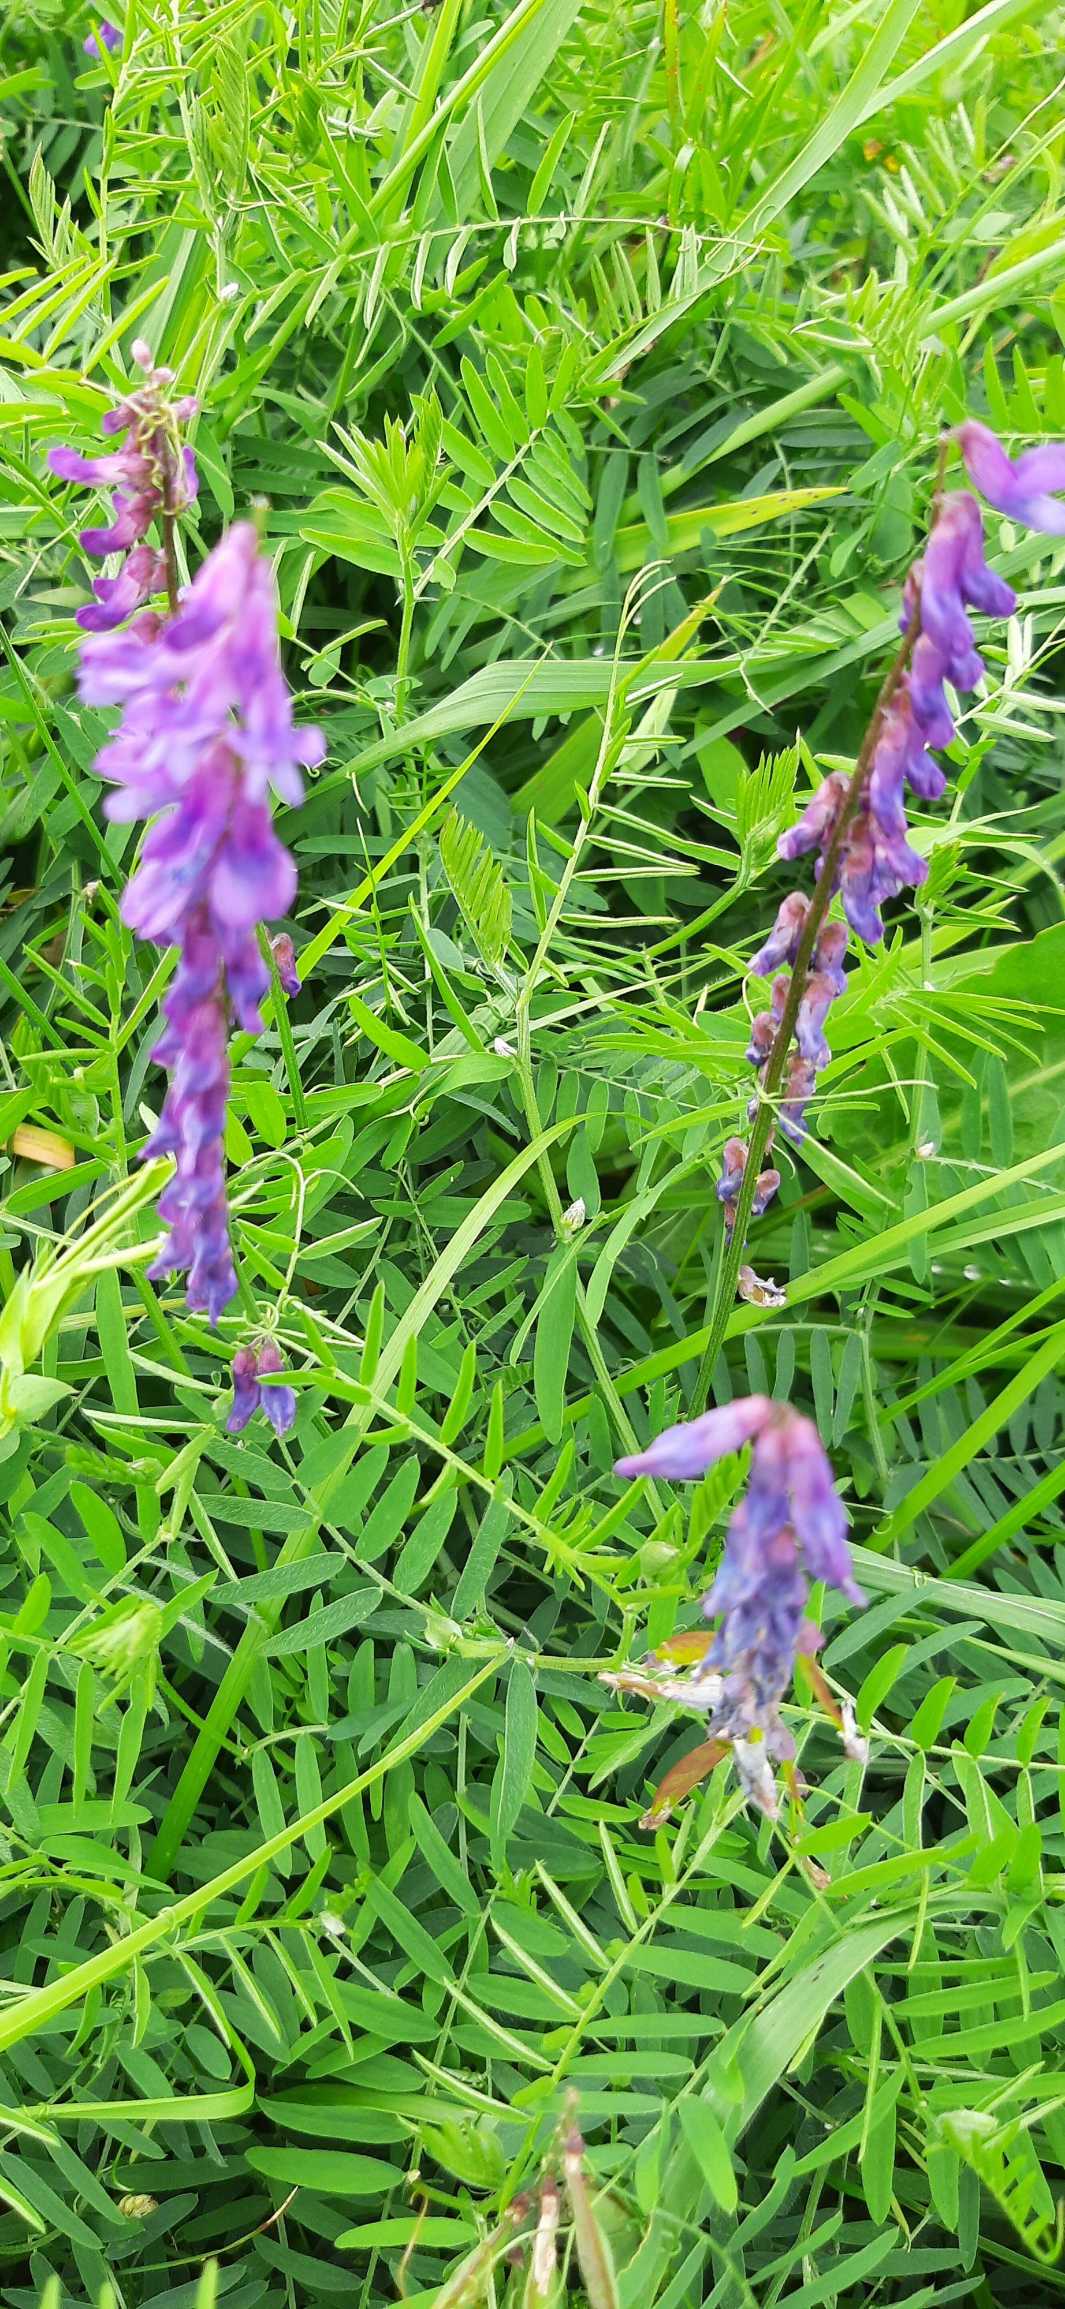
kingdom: Plantae
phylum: Tracheophyta
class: Magnoliopsida
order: Fabales
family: Fabaceae
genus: Vicia
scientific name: Vicia cracca
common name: Muse-vikke
